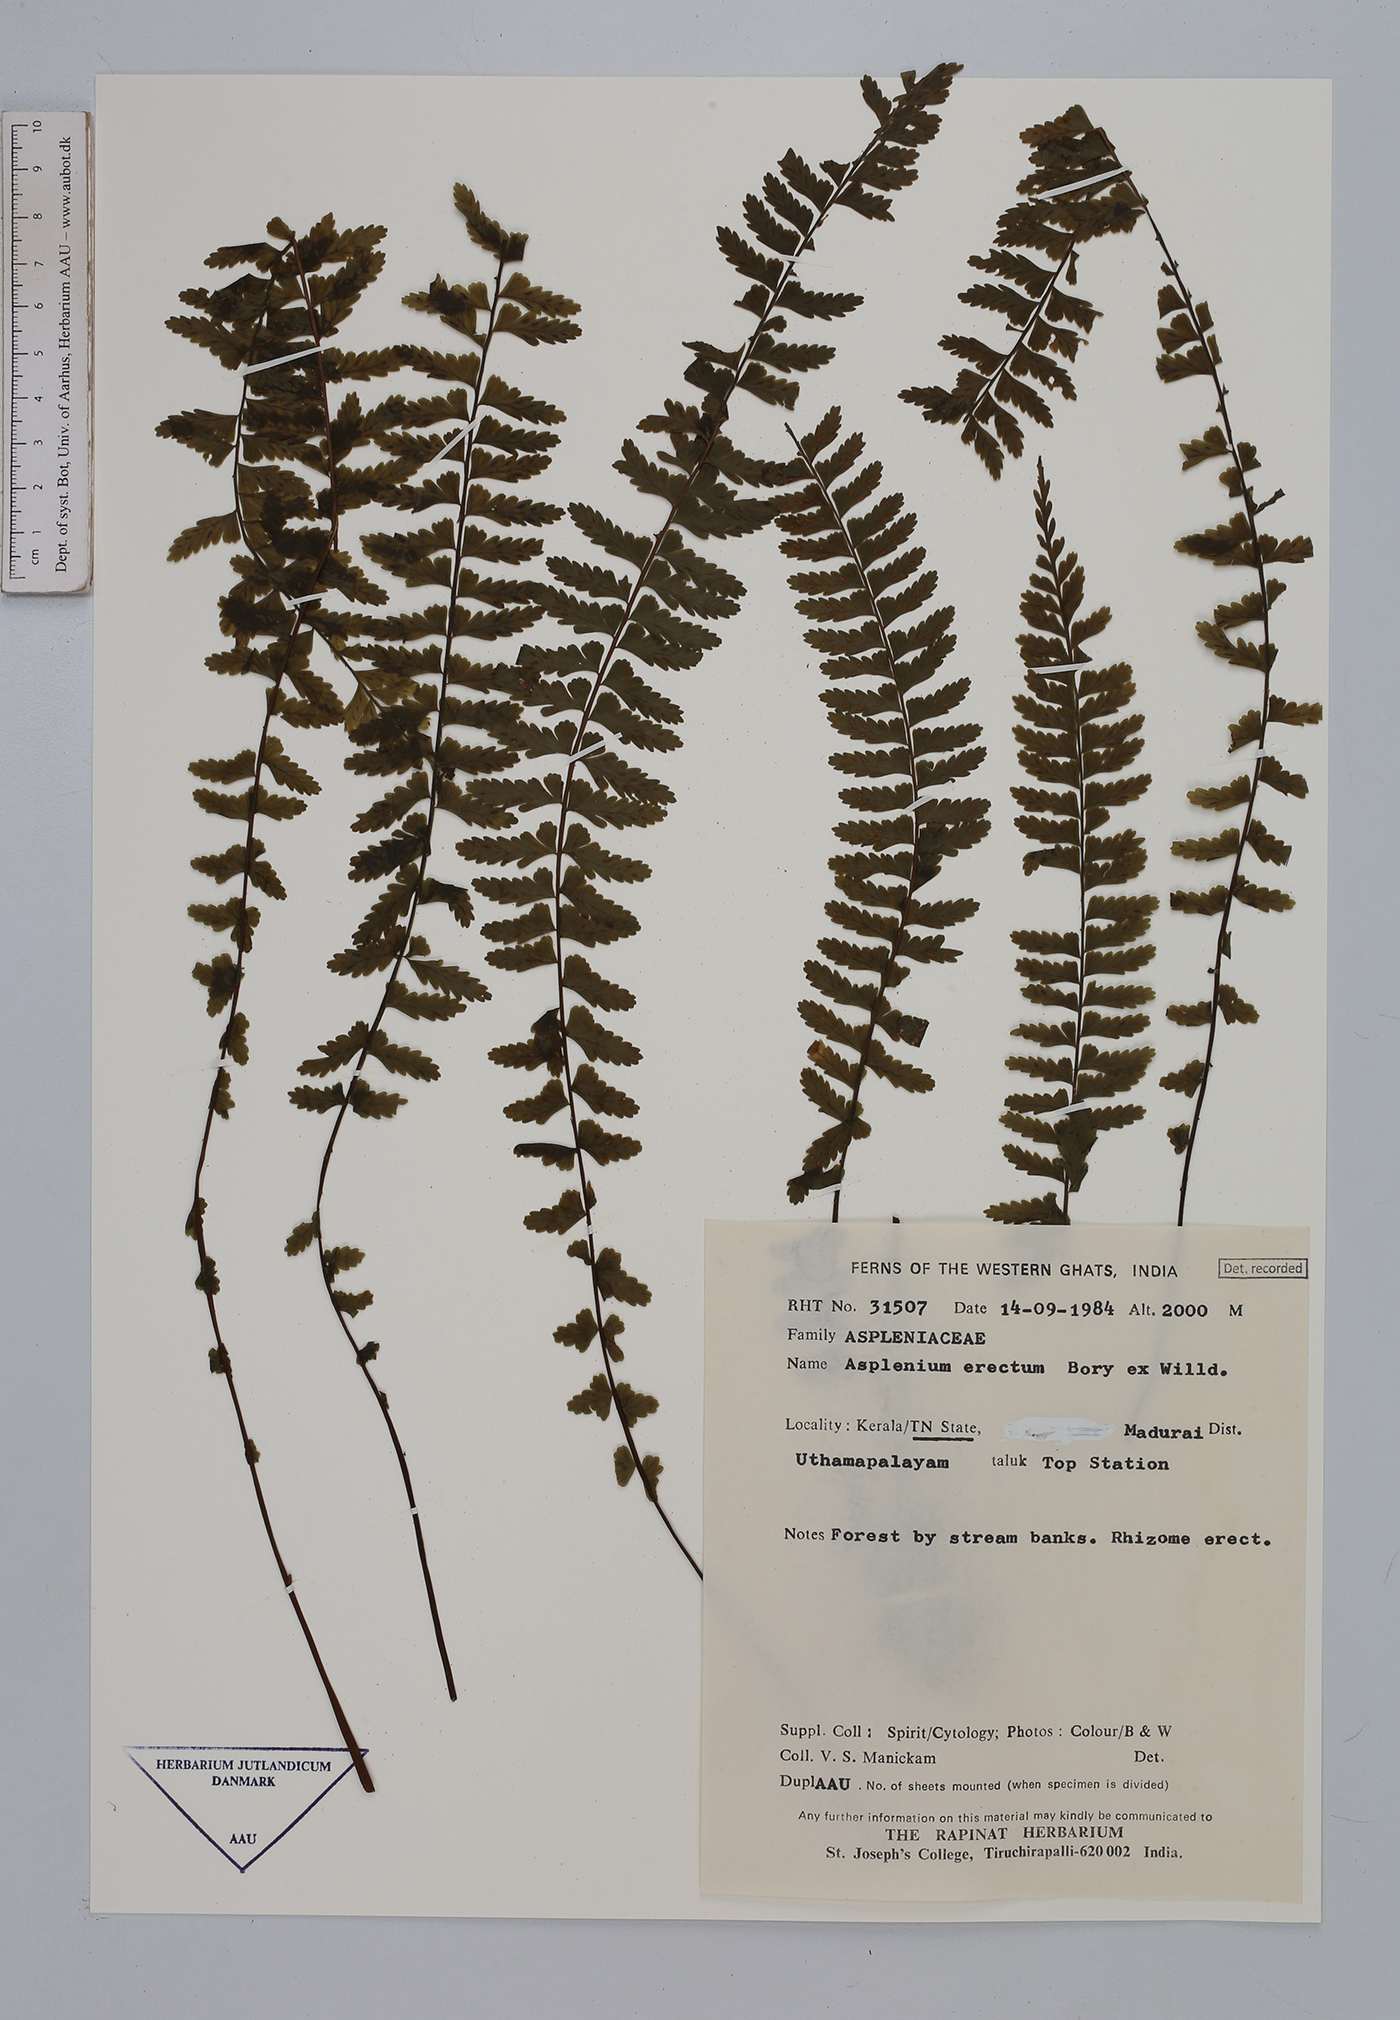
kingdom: Plantae
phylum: Tracheophyta
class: Polypodiopsida
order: Polypodiales
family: Aspleniaceae
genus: Asplenium
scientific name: Asplenium erectum
